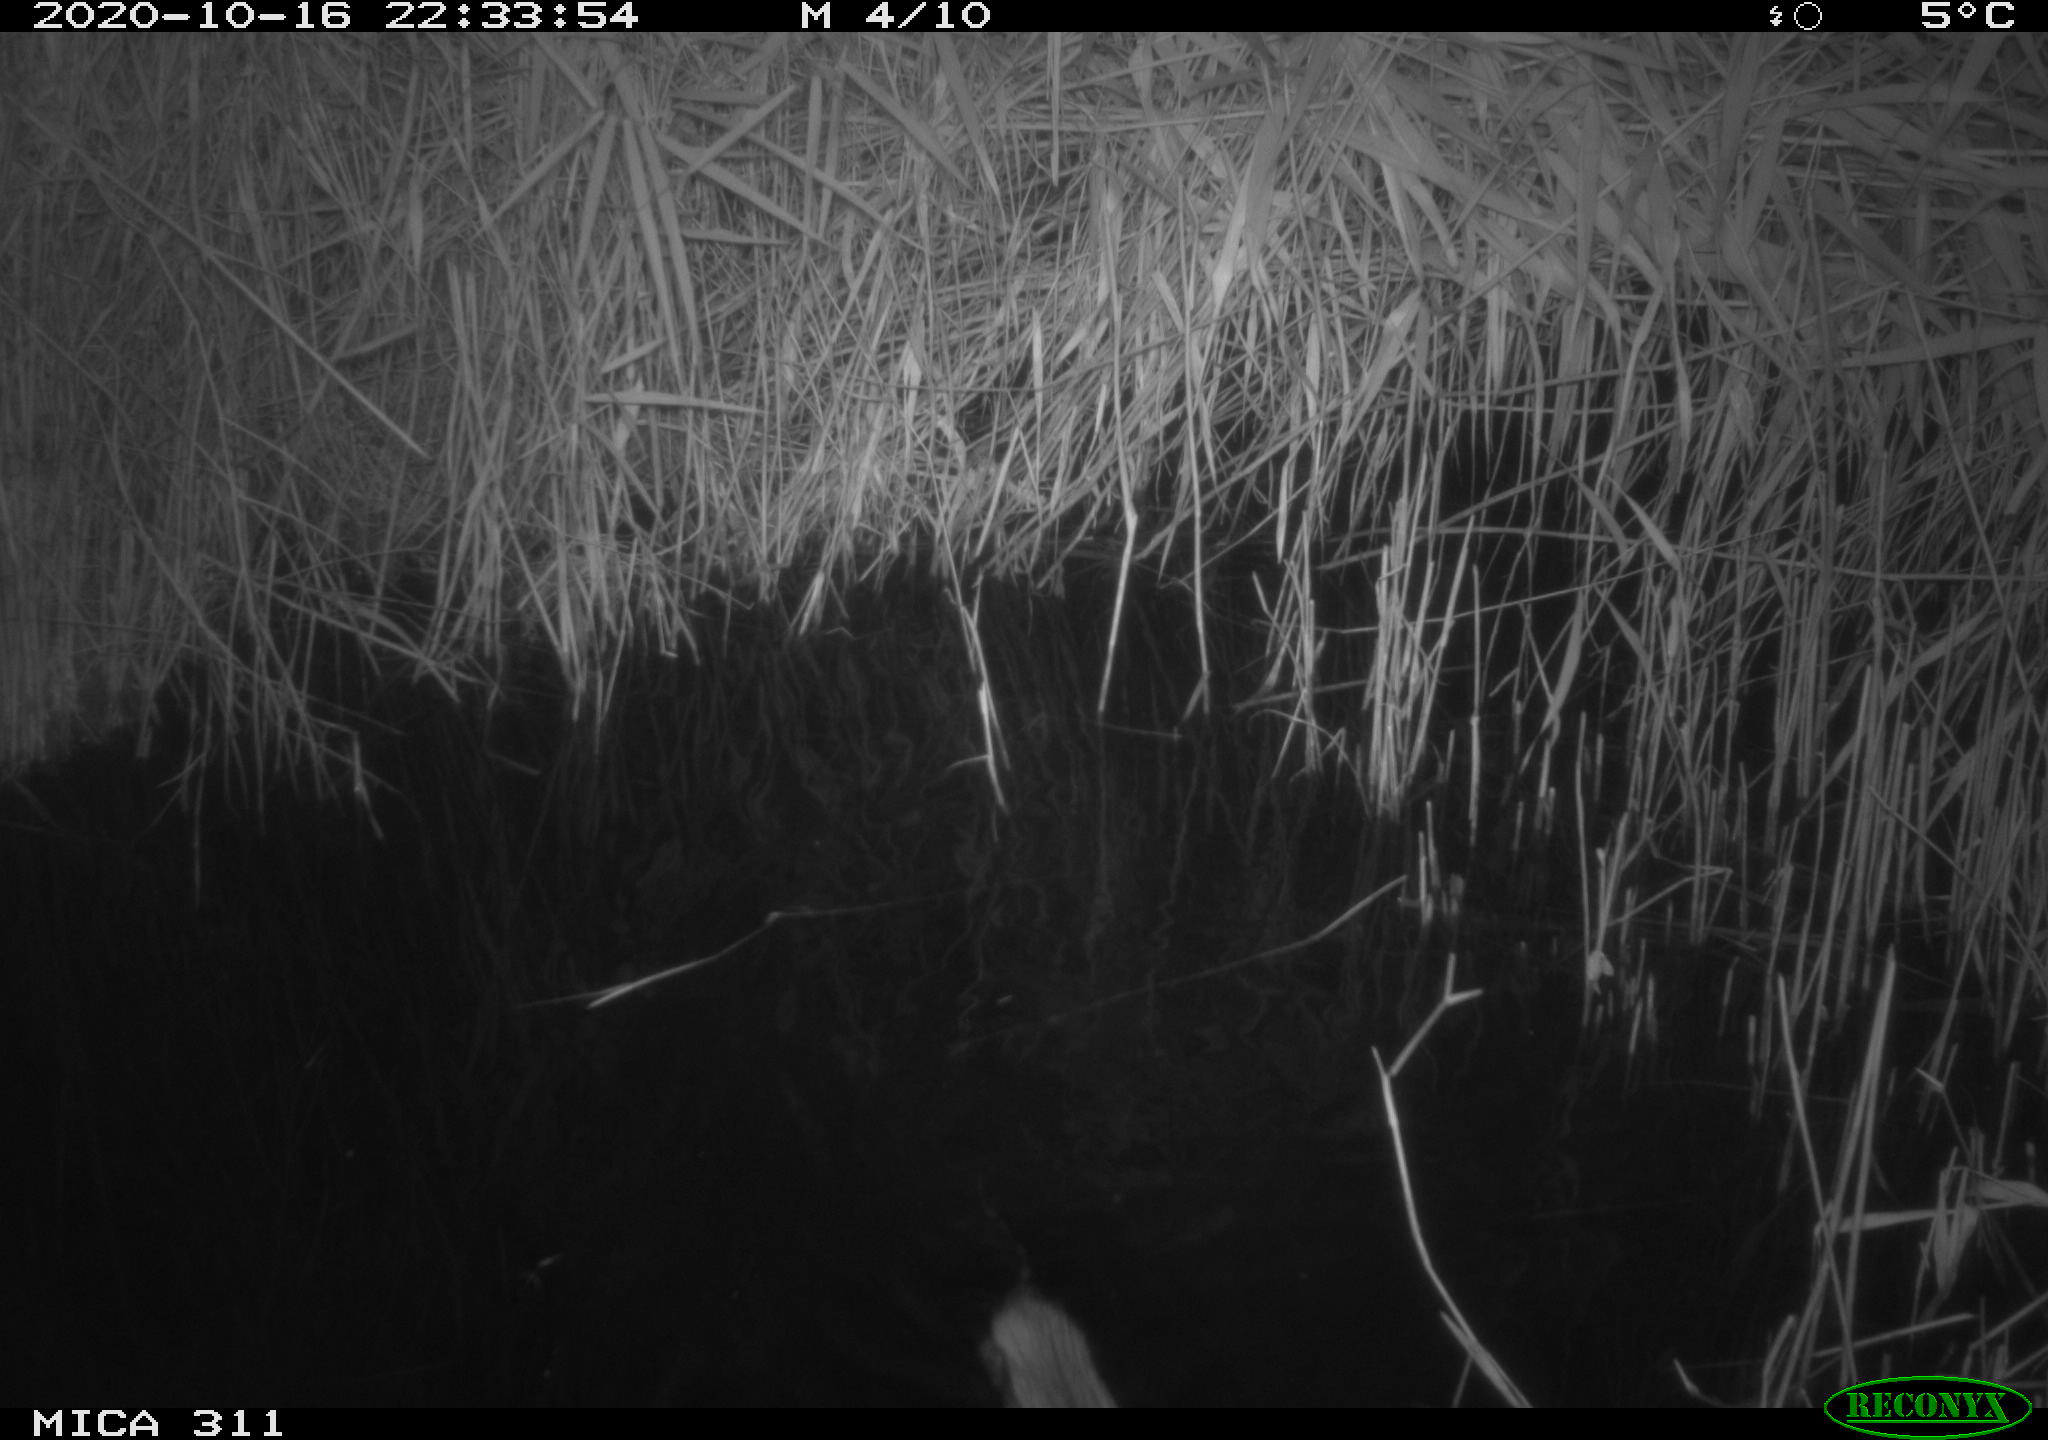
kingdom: Animalia
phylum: Chordata
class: Mammalia
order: Rodentia
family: Cricetidae
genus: Ondatra
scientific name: Ondatra zibethicus
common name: Muskrat
